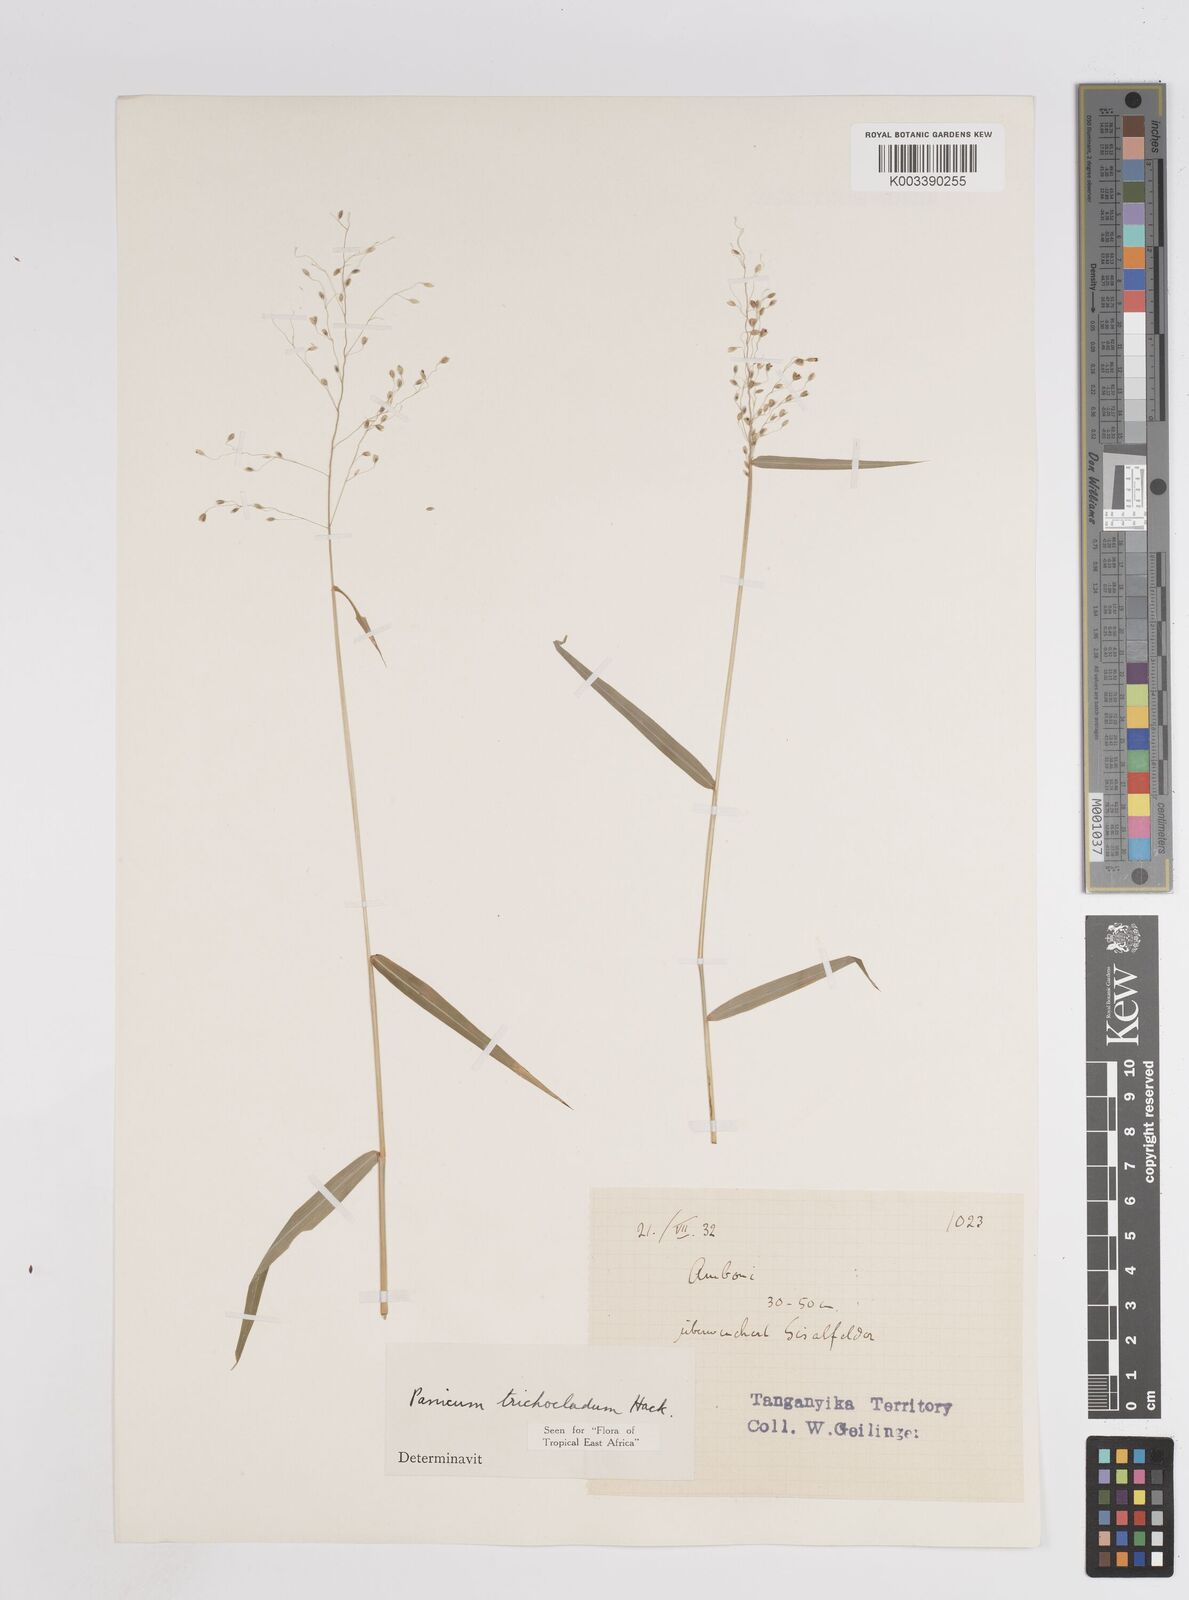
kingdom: Plantae
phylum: Tracheophyta
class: Liliopsida
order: Poales
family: Poaceae
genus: Panicum
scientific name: Panicum trichocladum
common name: Donkey grass
